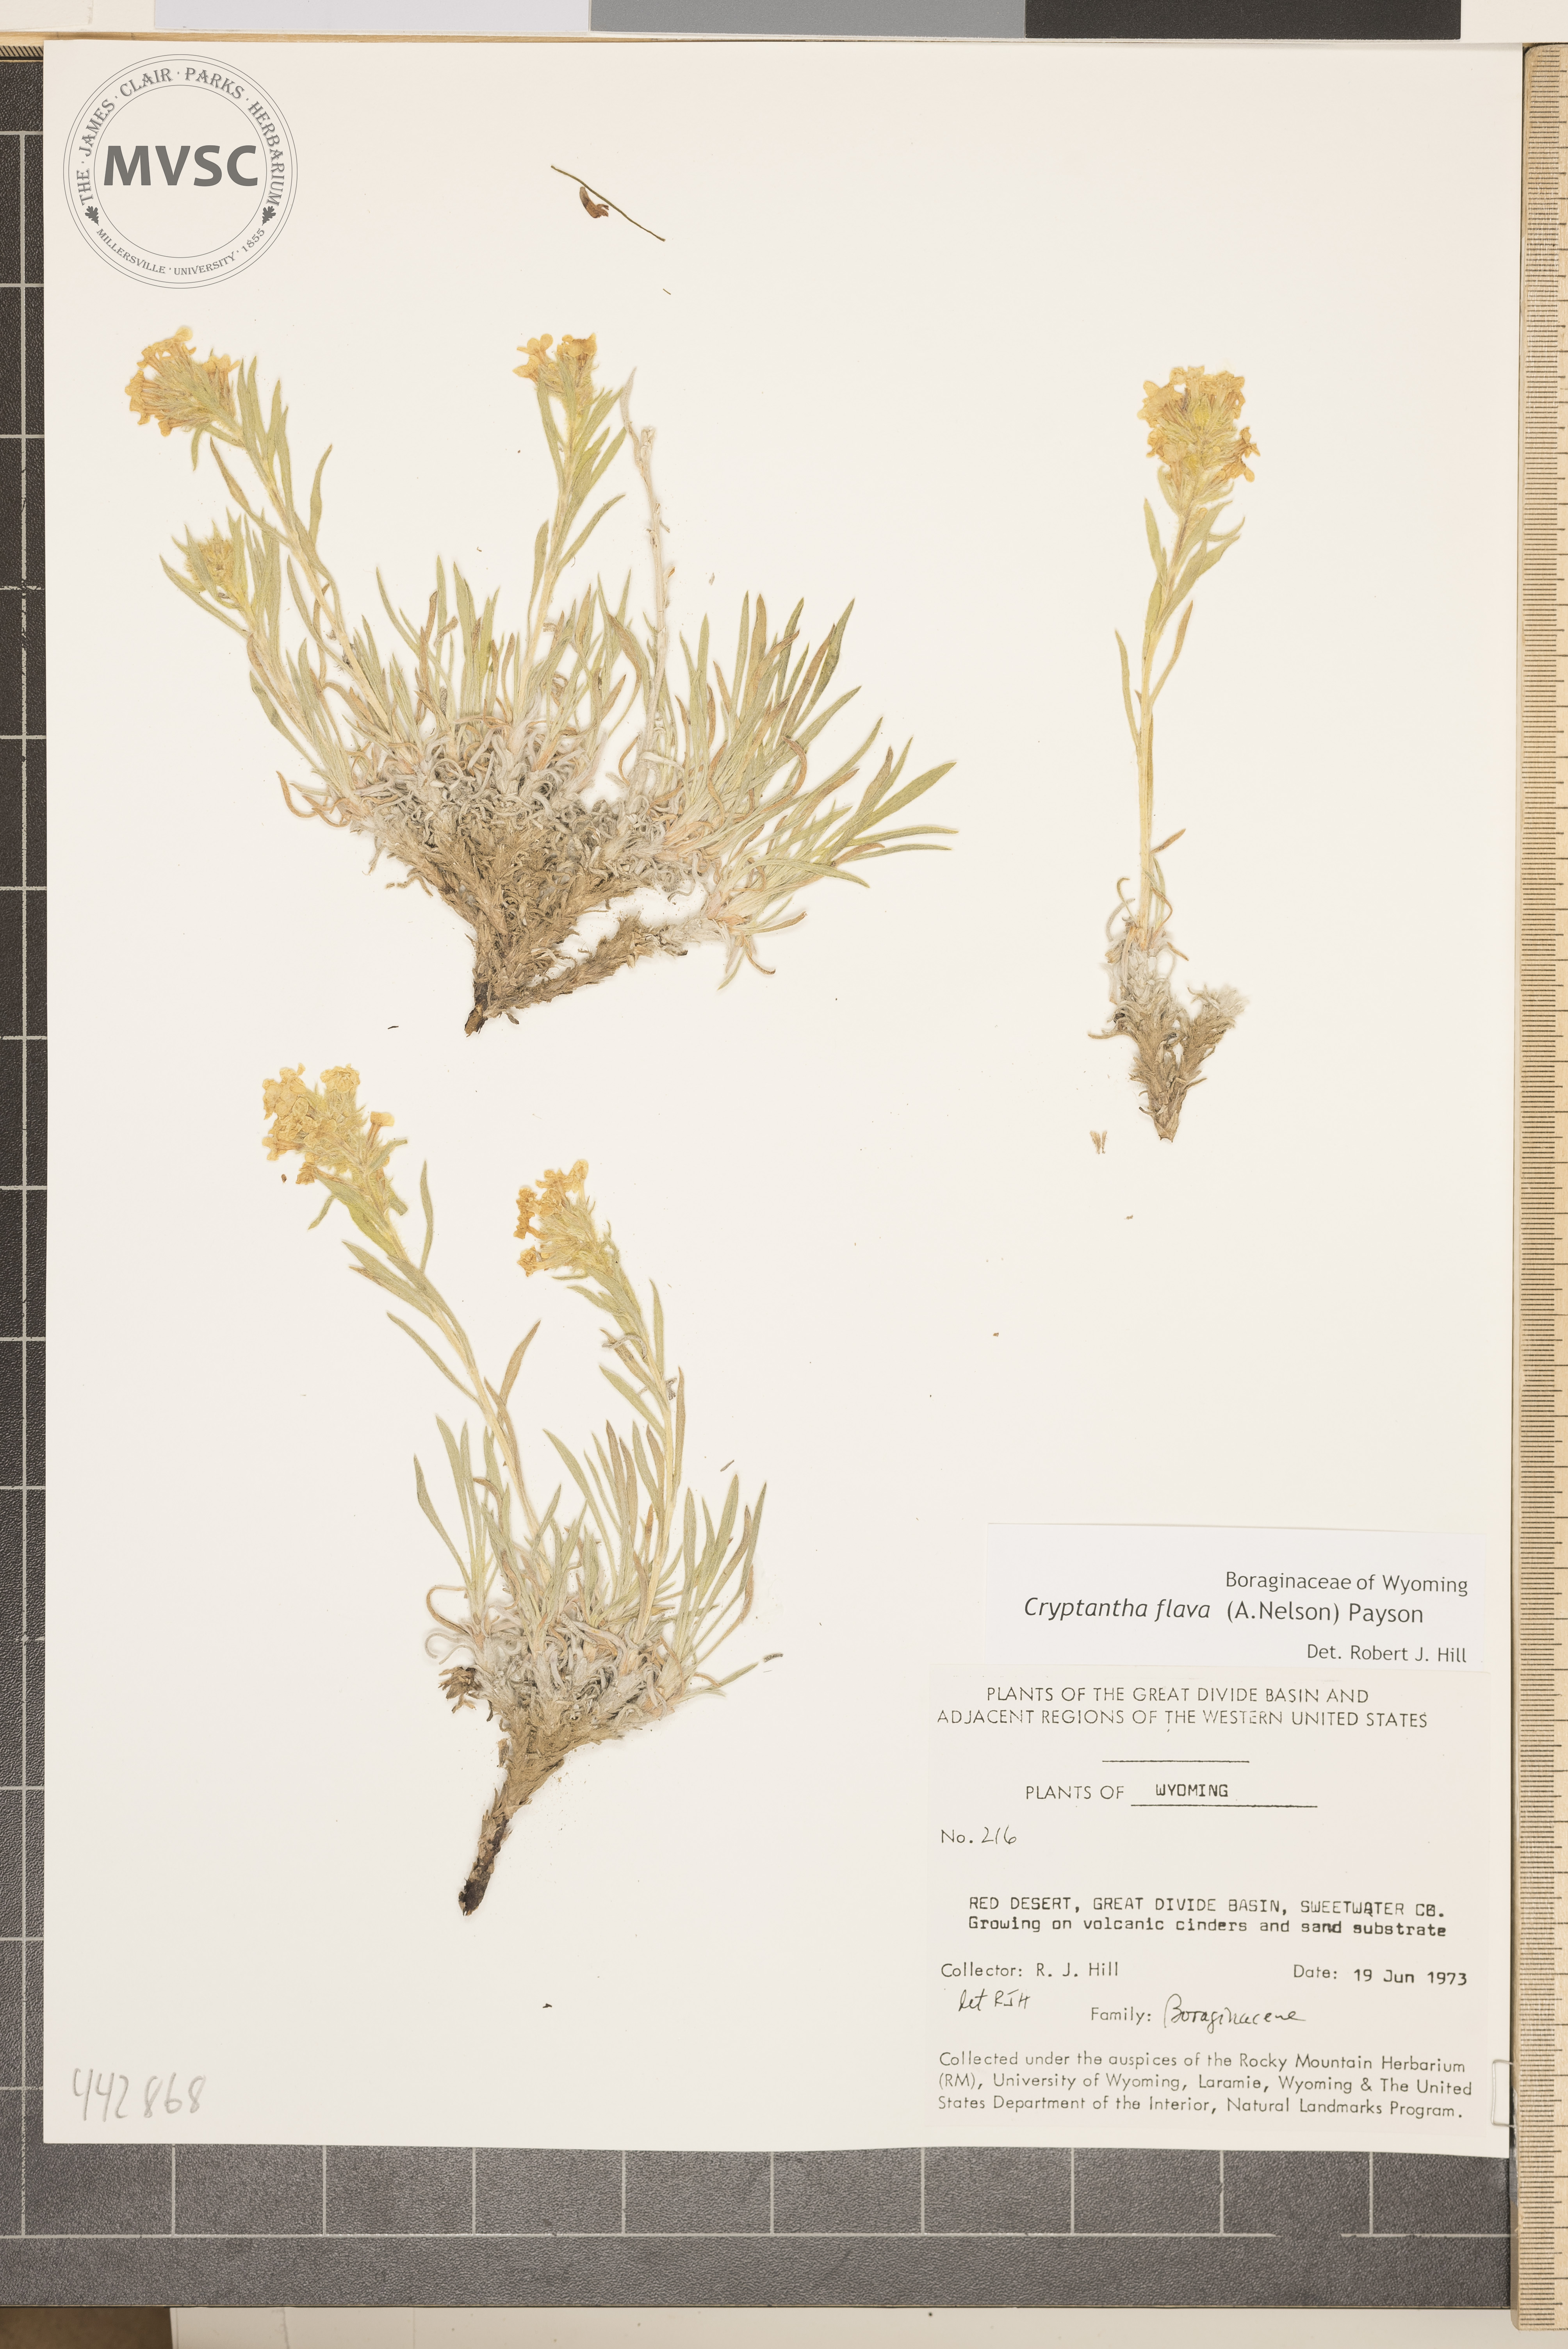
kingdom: Plantae
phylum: Tracheophyta
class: Magnoliopsida
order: Boraginales
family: Boraginaceae
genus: Oreocarya
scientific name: Oreocarya flava
